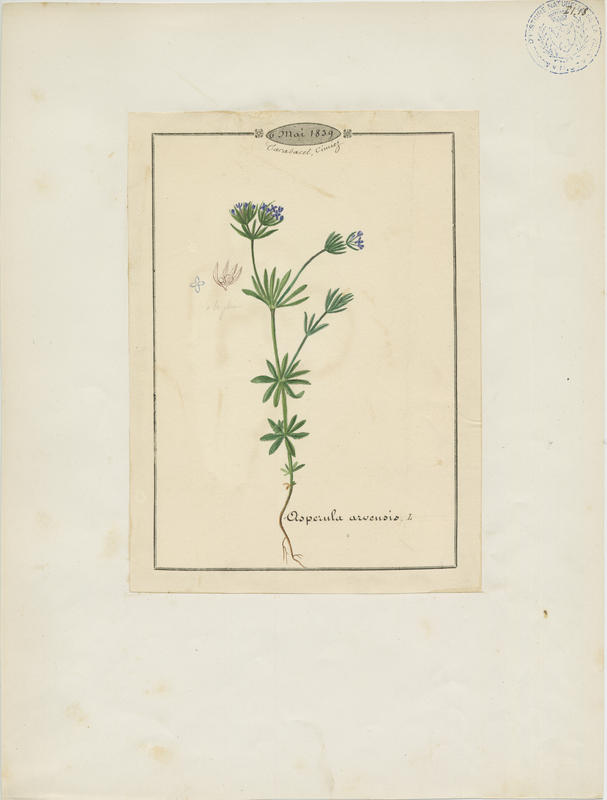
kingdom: Plantae
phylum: Tracheophyta
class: Magnoliopsida
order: Gentianales
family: Rubiaceae
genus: Asperula
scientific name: Asperula arvensis
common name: Blue woodruff
